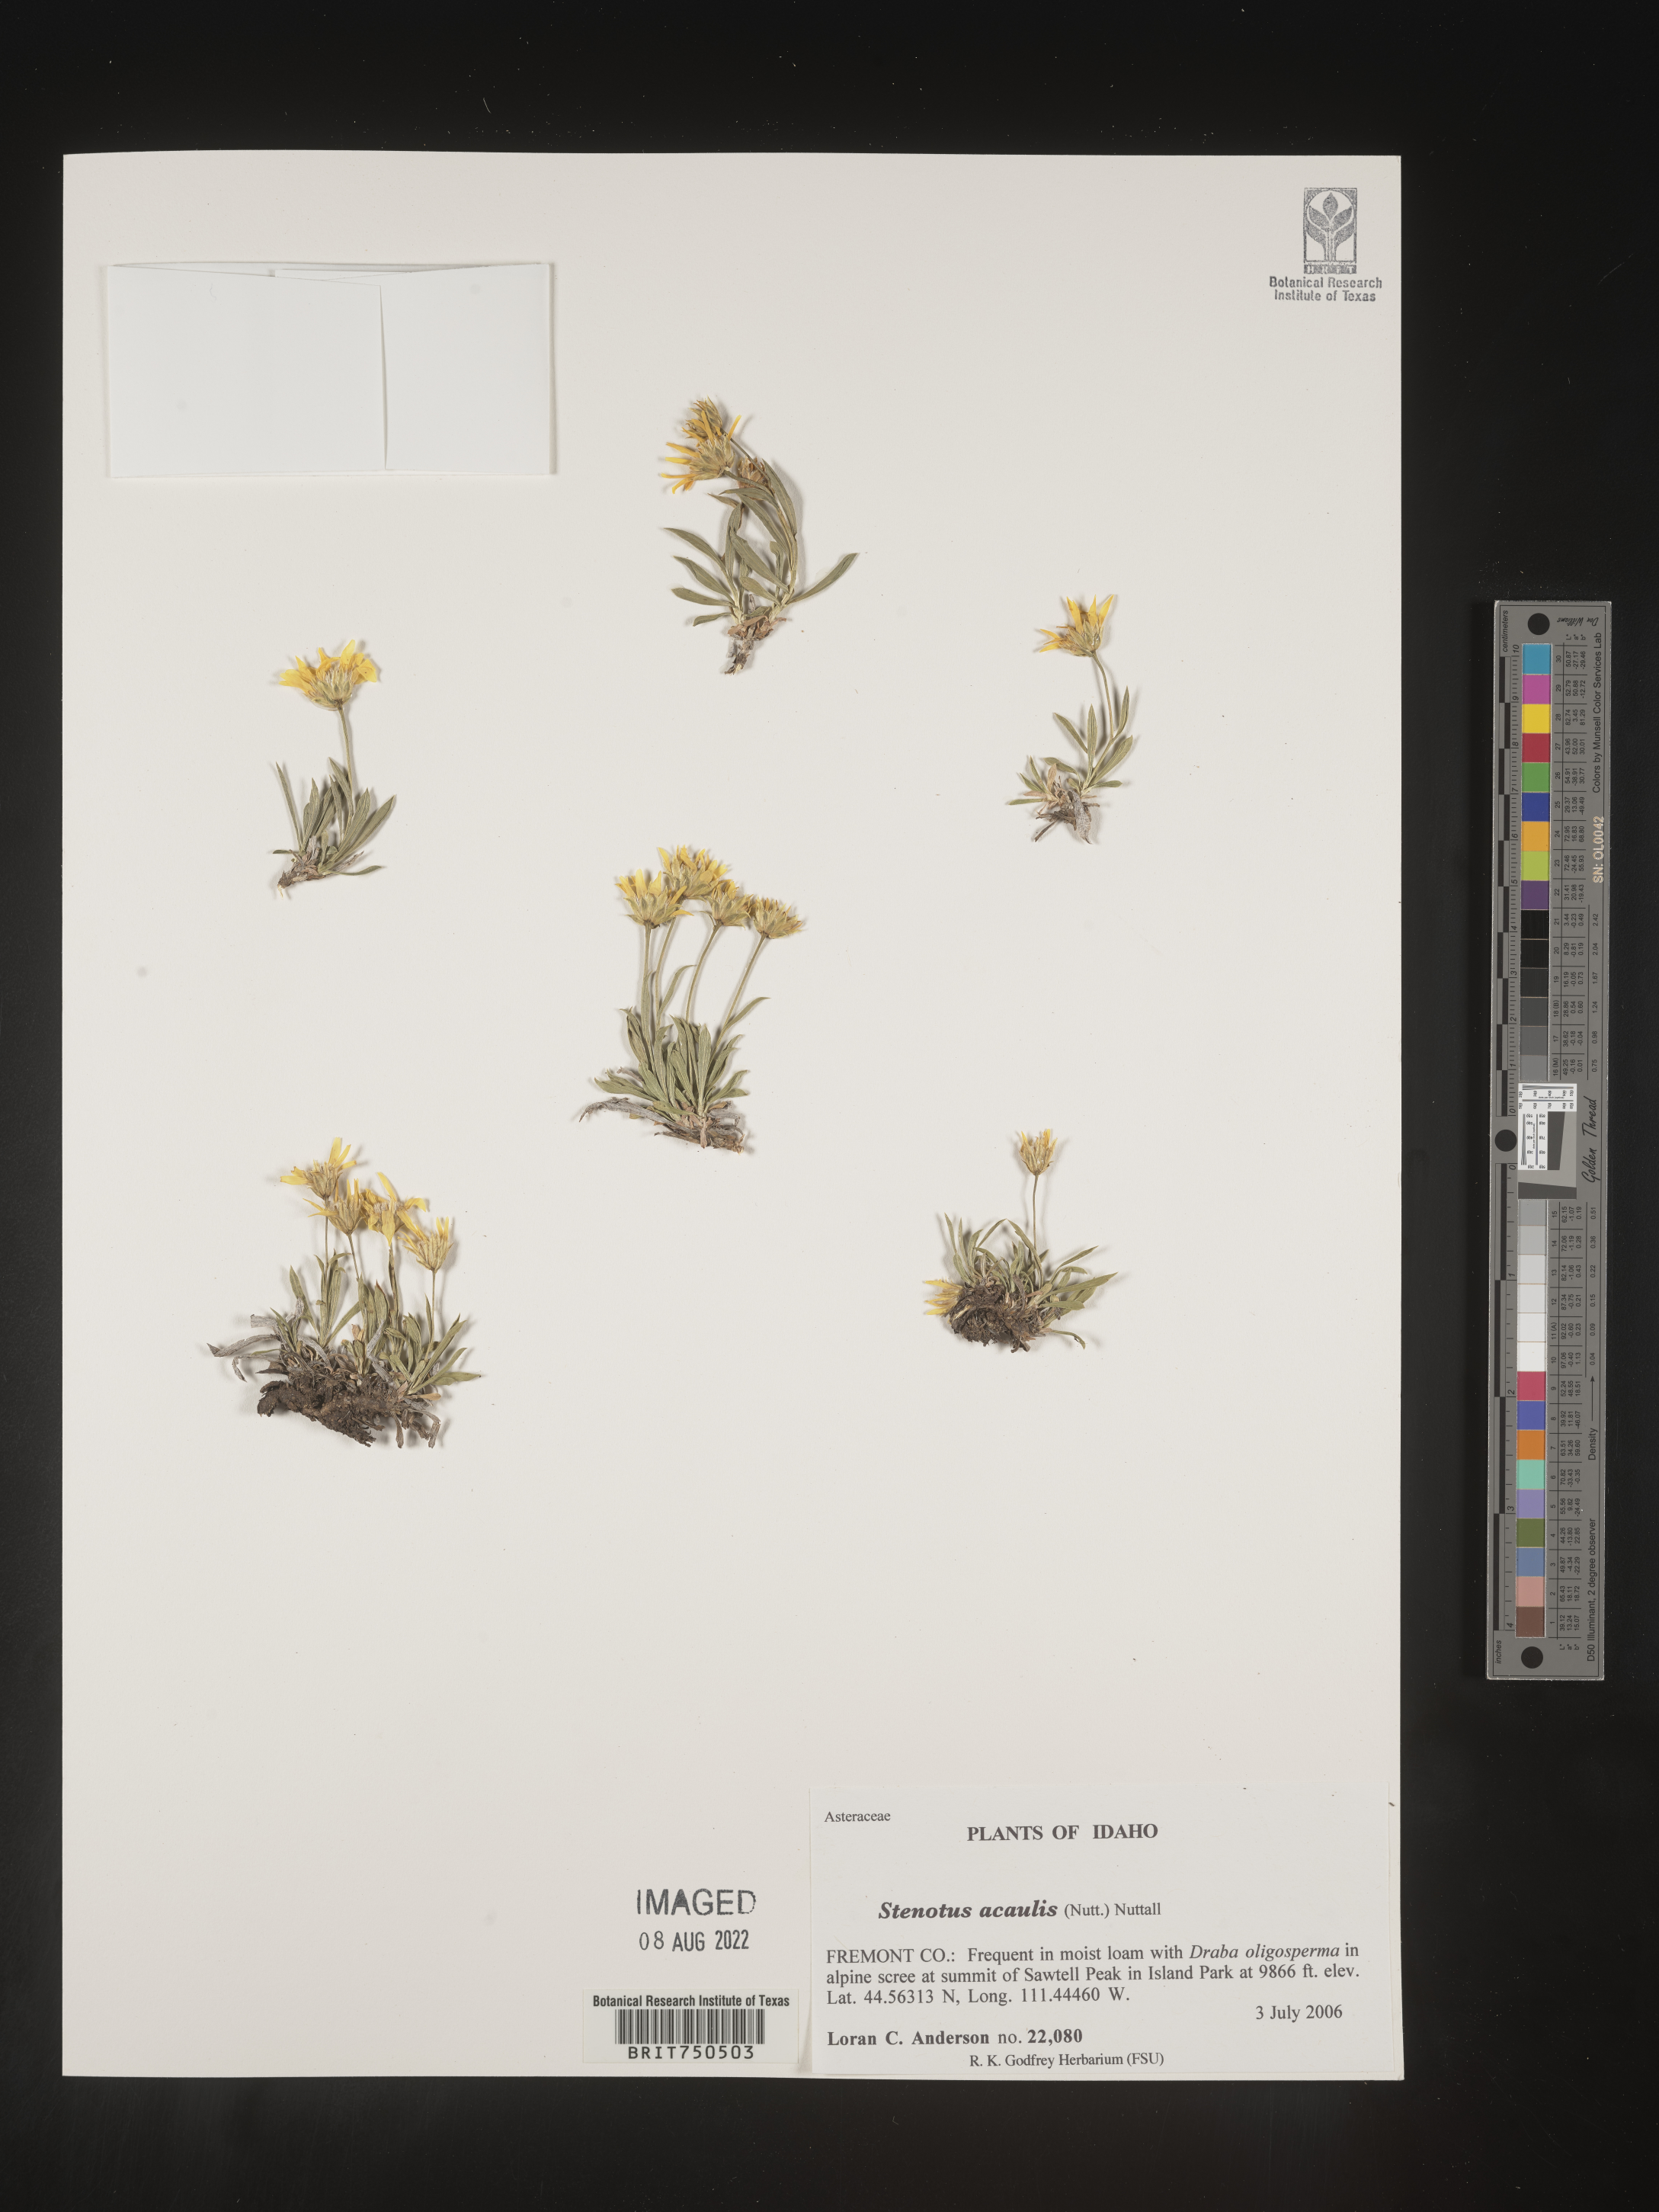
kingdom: Plantae
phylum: Tracheophyta
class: Magnoliopsida
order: Asterales
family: Asteraceae
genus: Stenotus
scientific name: Stenotus acaulis
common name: Stemless goldenweed
